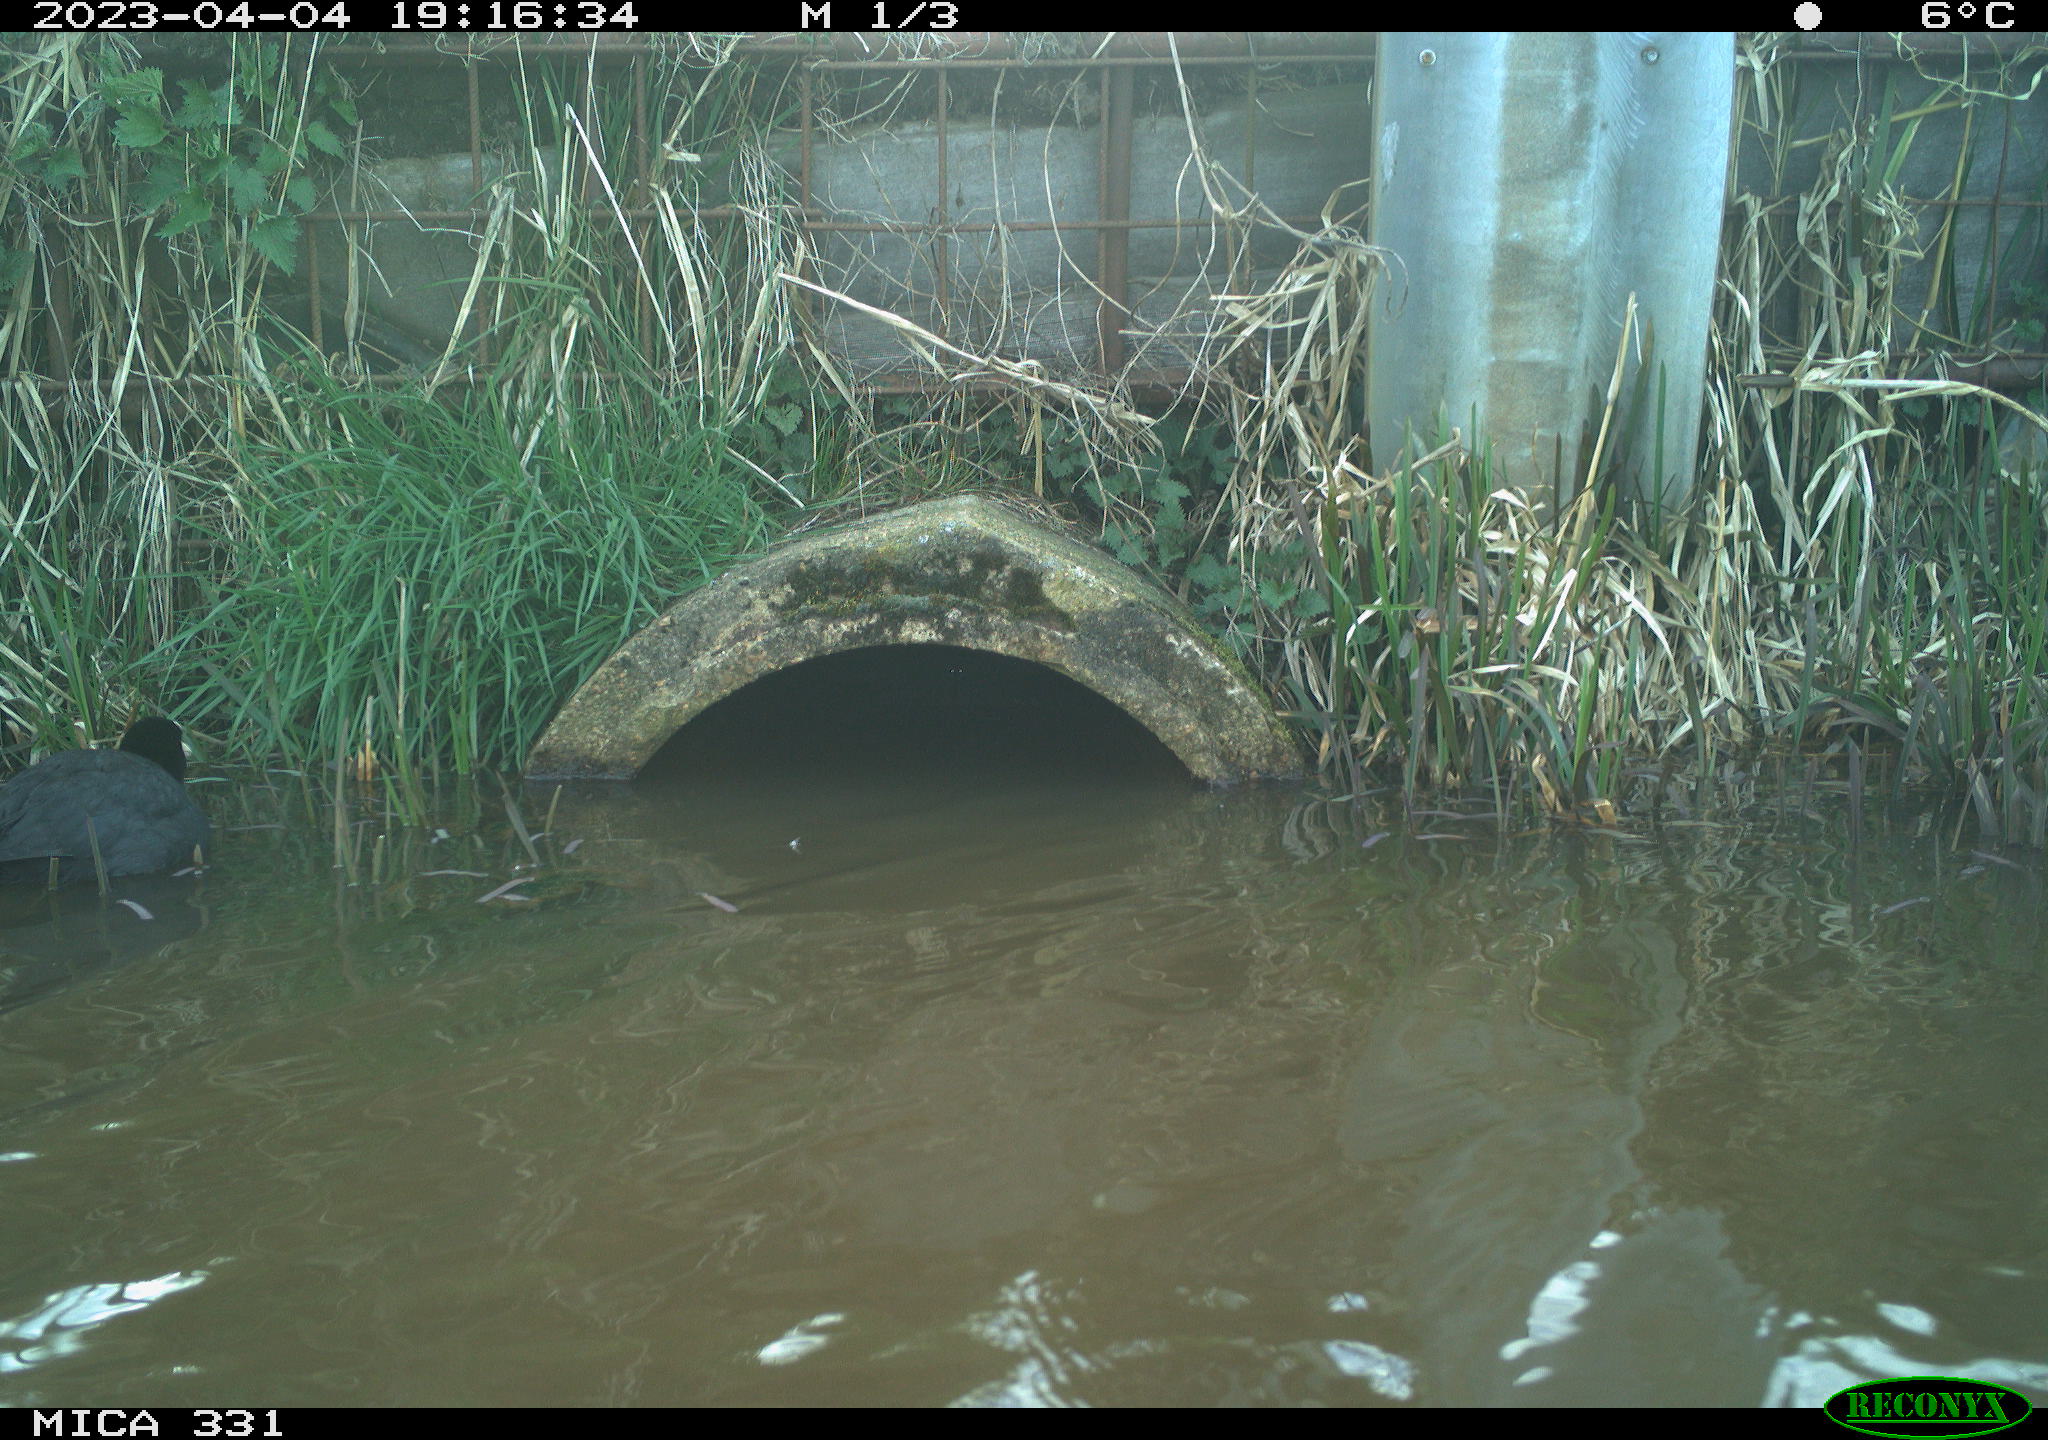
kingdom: Animalia
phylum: Chordata
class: Aves
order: Gruiformes
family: Rallidae
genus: Fulica
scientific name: Fulica atra
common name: Eurasian coot
